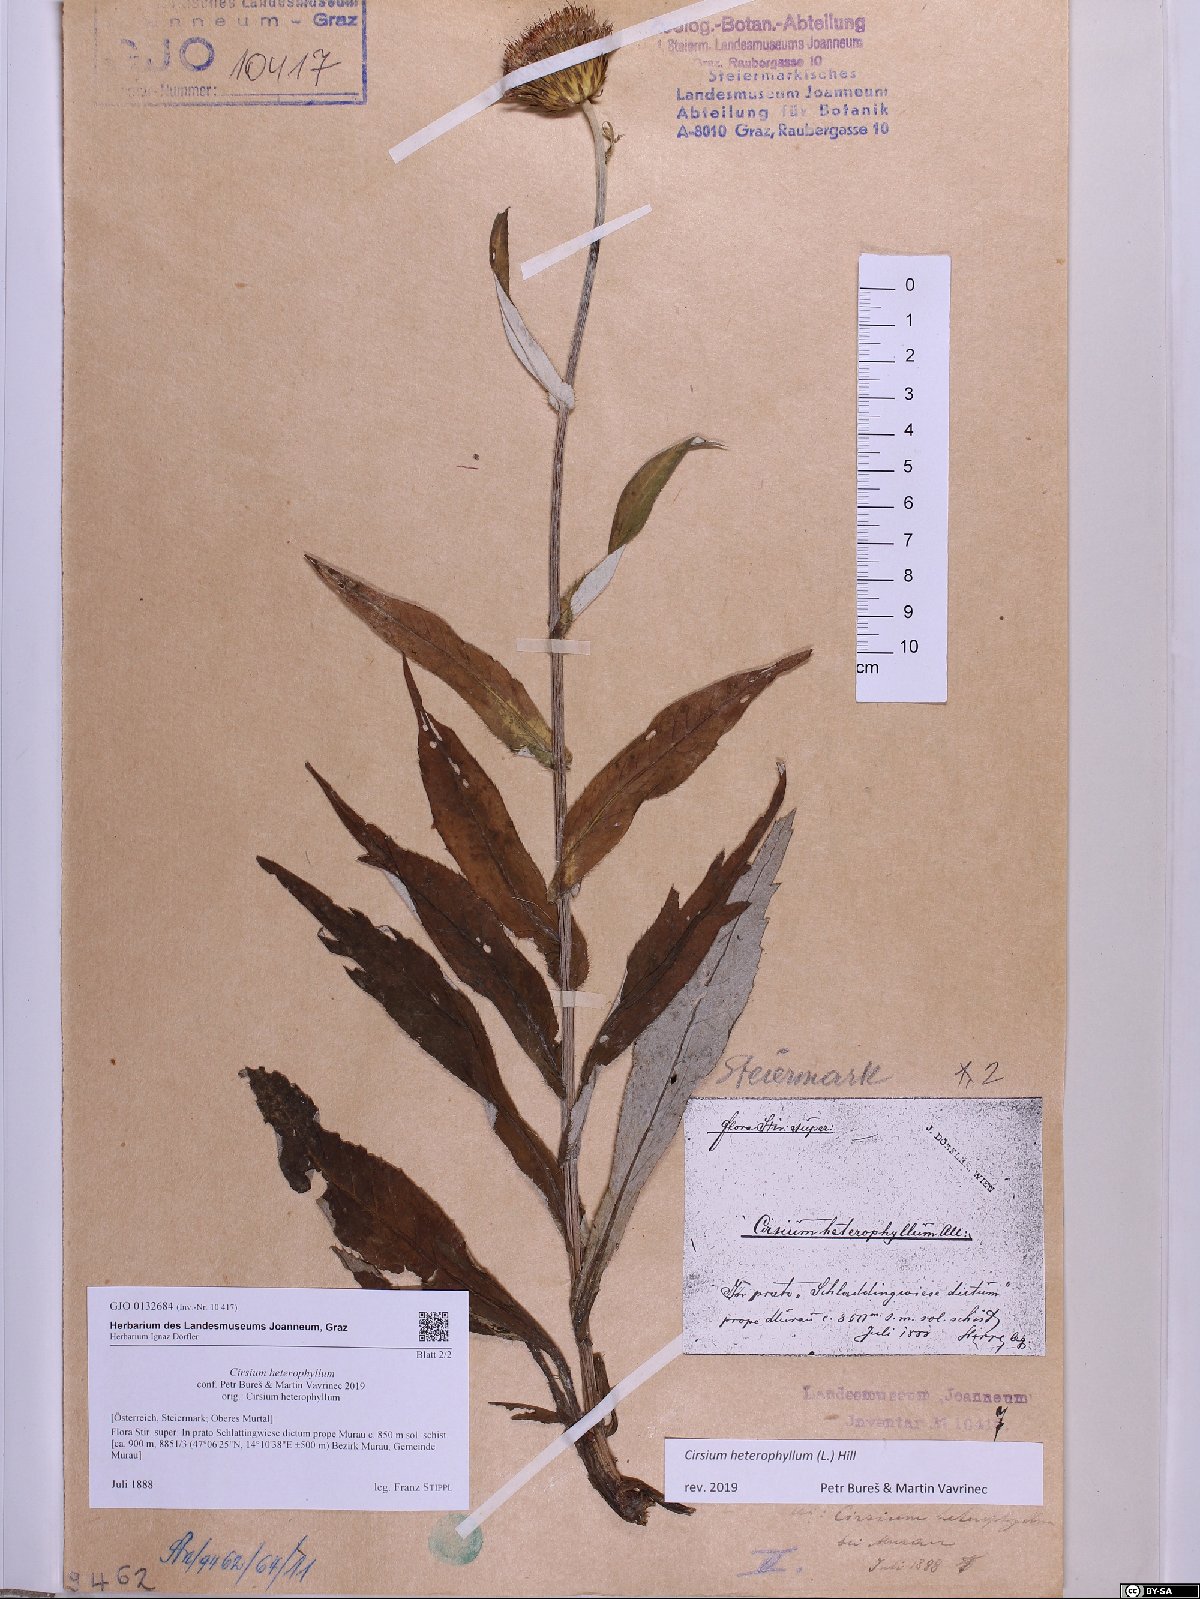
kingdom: Plantae
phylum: Tracheophyta
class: Magnoliopsida
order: Asterales
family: Asteraceae
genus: Cirsium
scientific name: Cirsium heterophyllum
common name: Melancholy thistle
